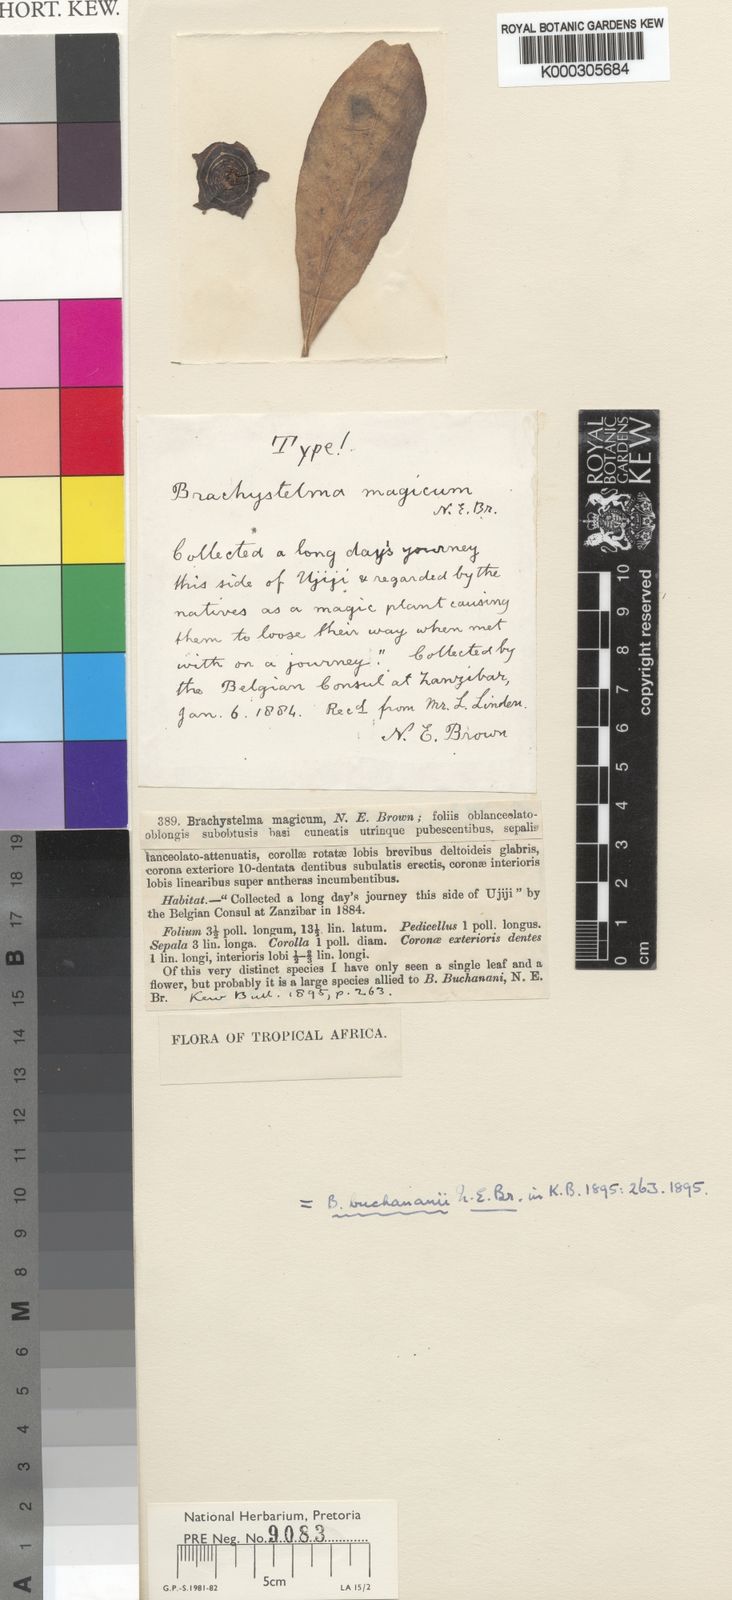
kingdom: Plantae
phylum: Tracheophyta
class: Magnoliopsida
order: Gentianales
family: Apocynaceae
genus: Ceropegia
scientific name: Ceropegia buchananii
